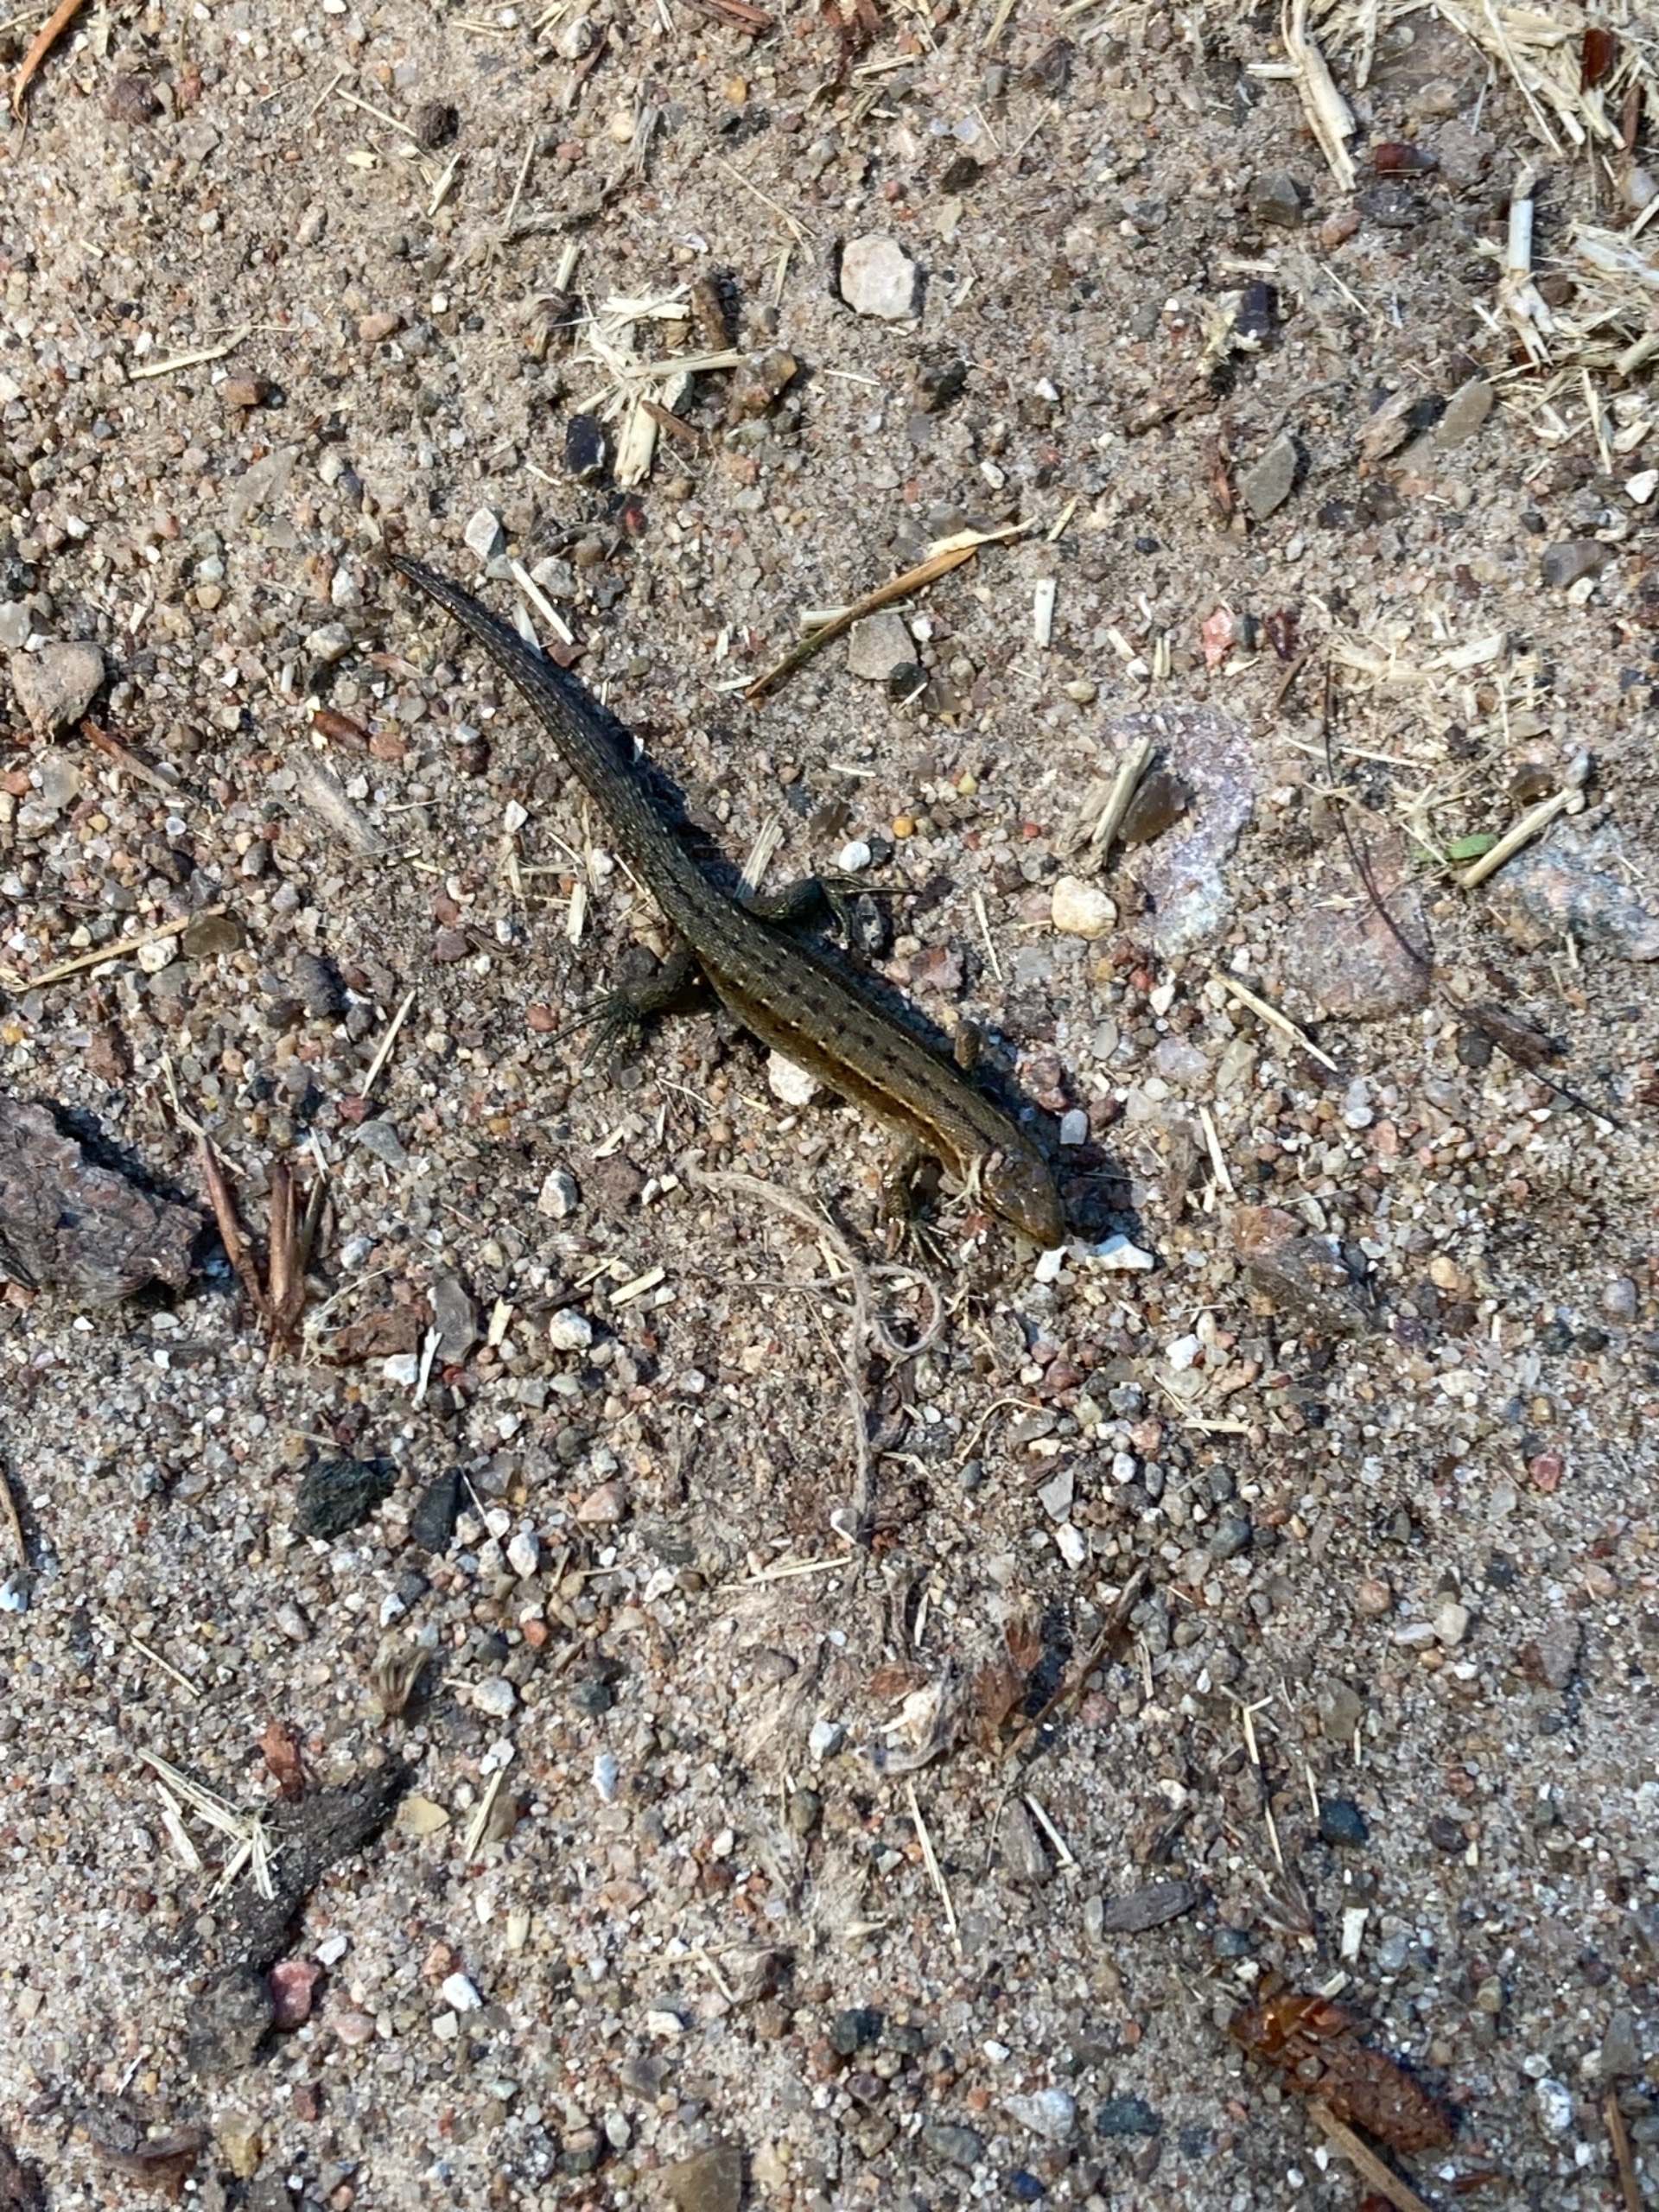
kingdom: Animalia
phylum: Chordata
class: Squamata
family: Lacertidae
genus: Zootoca
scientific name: Zootoca vivipara
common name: Skovfirben
